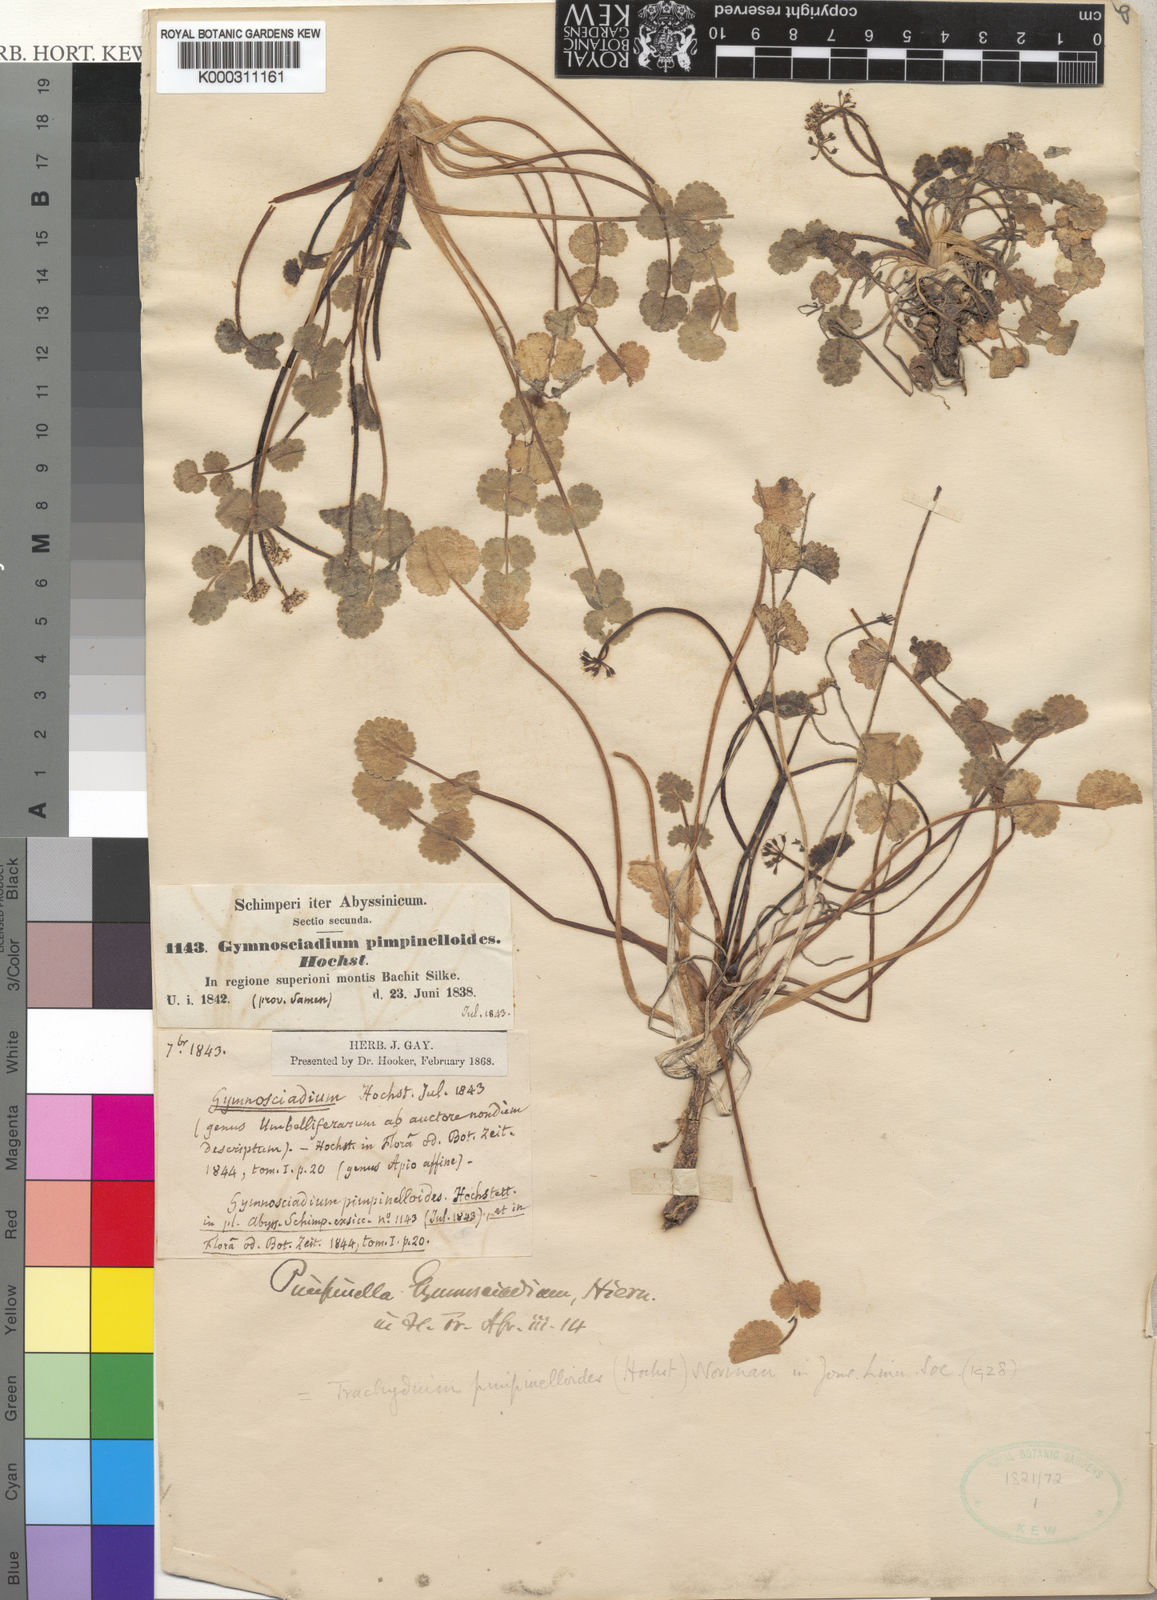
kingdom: Plantae
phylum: Tracheophyta
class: Magnoliopsida
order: Apiales
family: Apiaceae
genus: Pimpinella
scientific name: Pimpinella pimpinelloides
